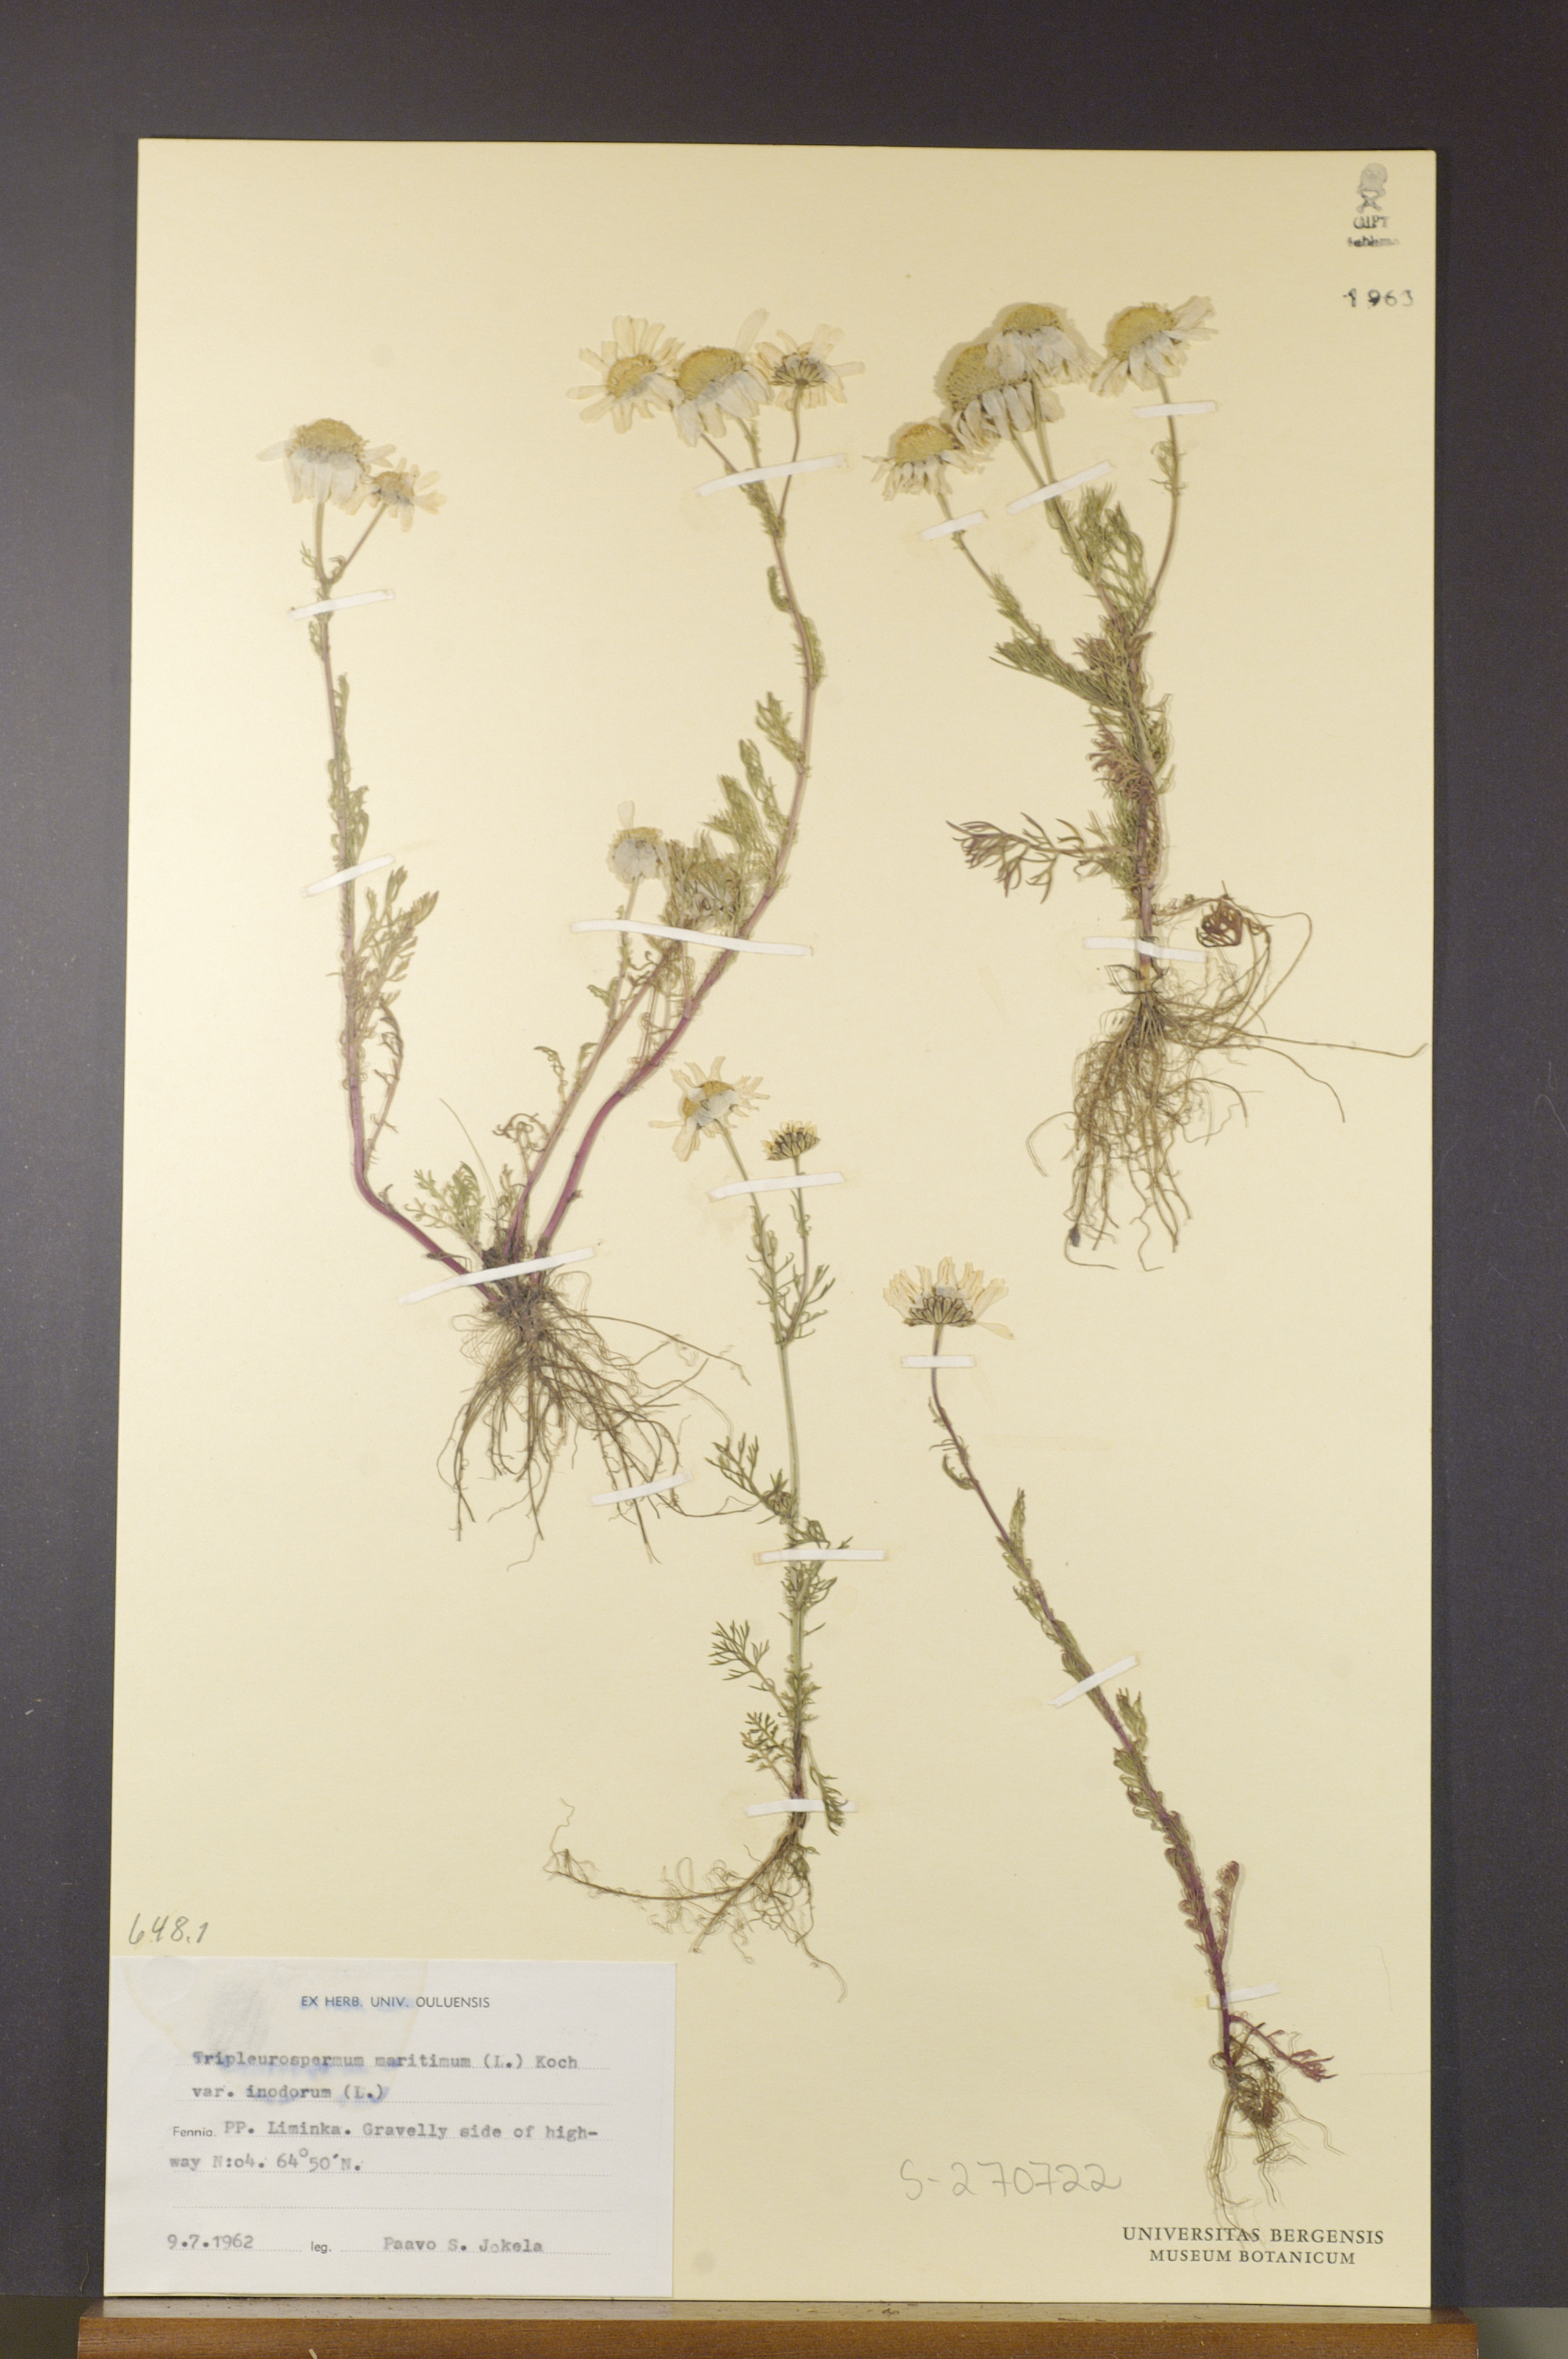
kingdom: Plantae
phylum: Tracheophyta
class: Magnoliopsida
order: Asterales
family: Asteraceae
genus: Tripleurospermum
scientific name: Tripleurospermum inodorum
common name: Scentless mayweed
